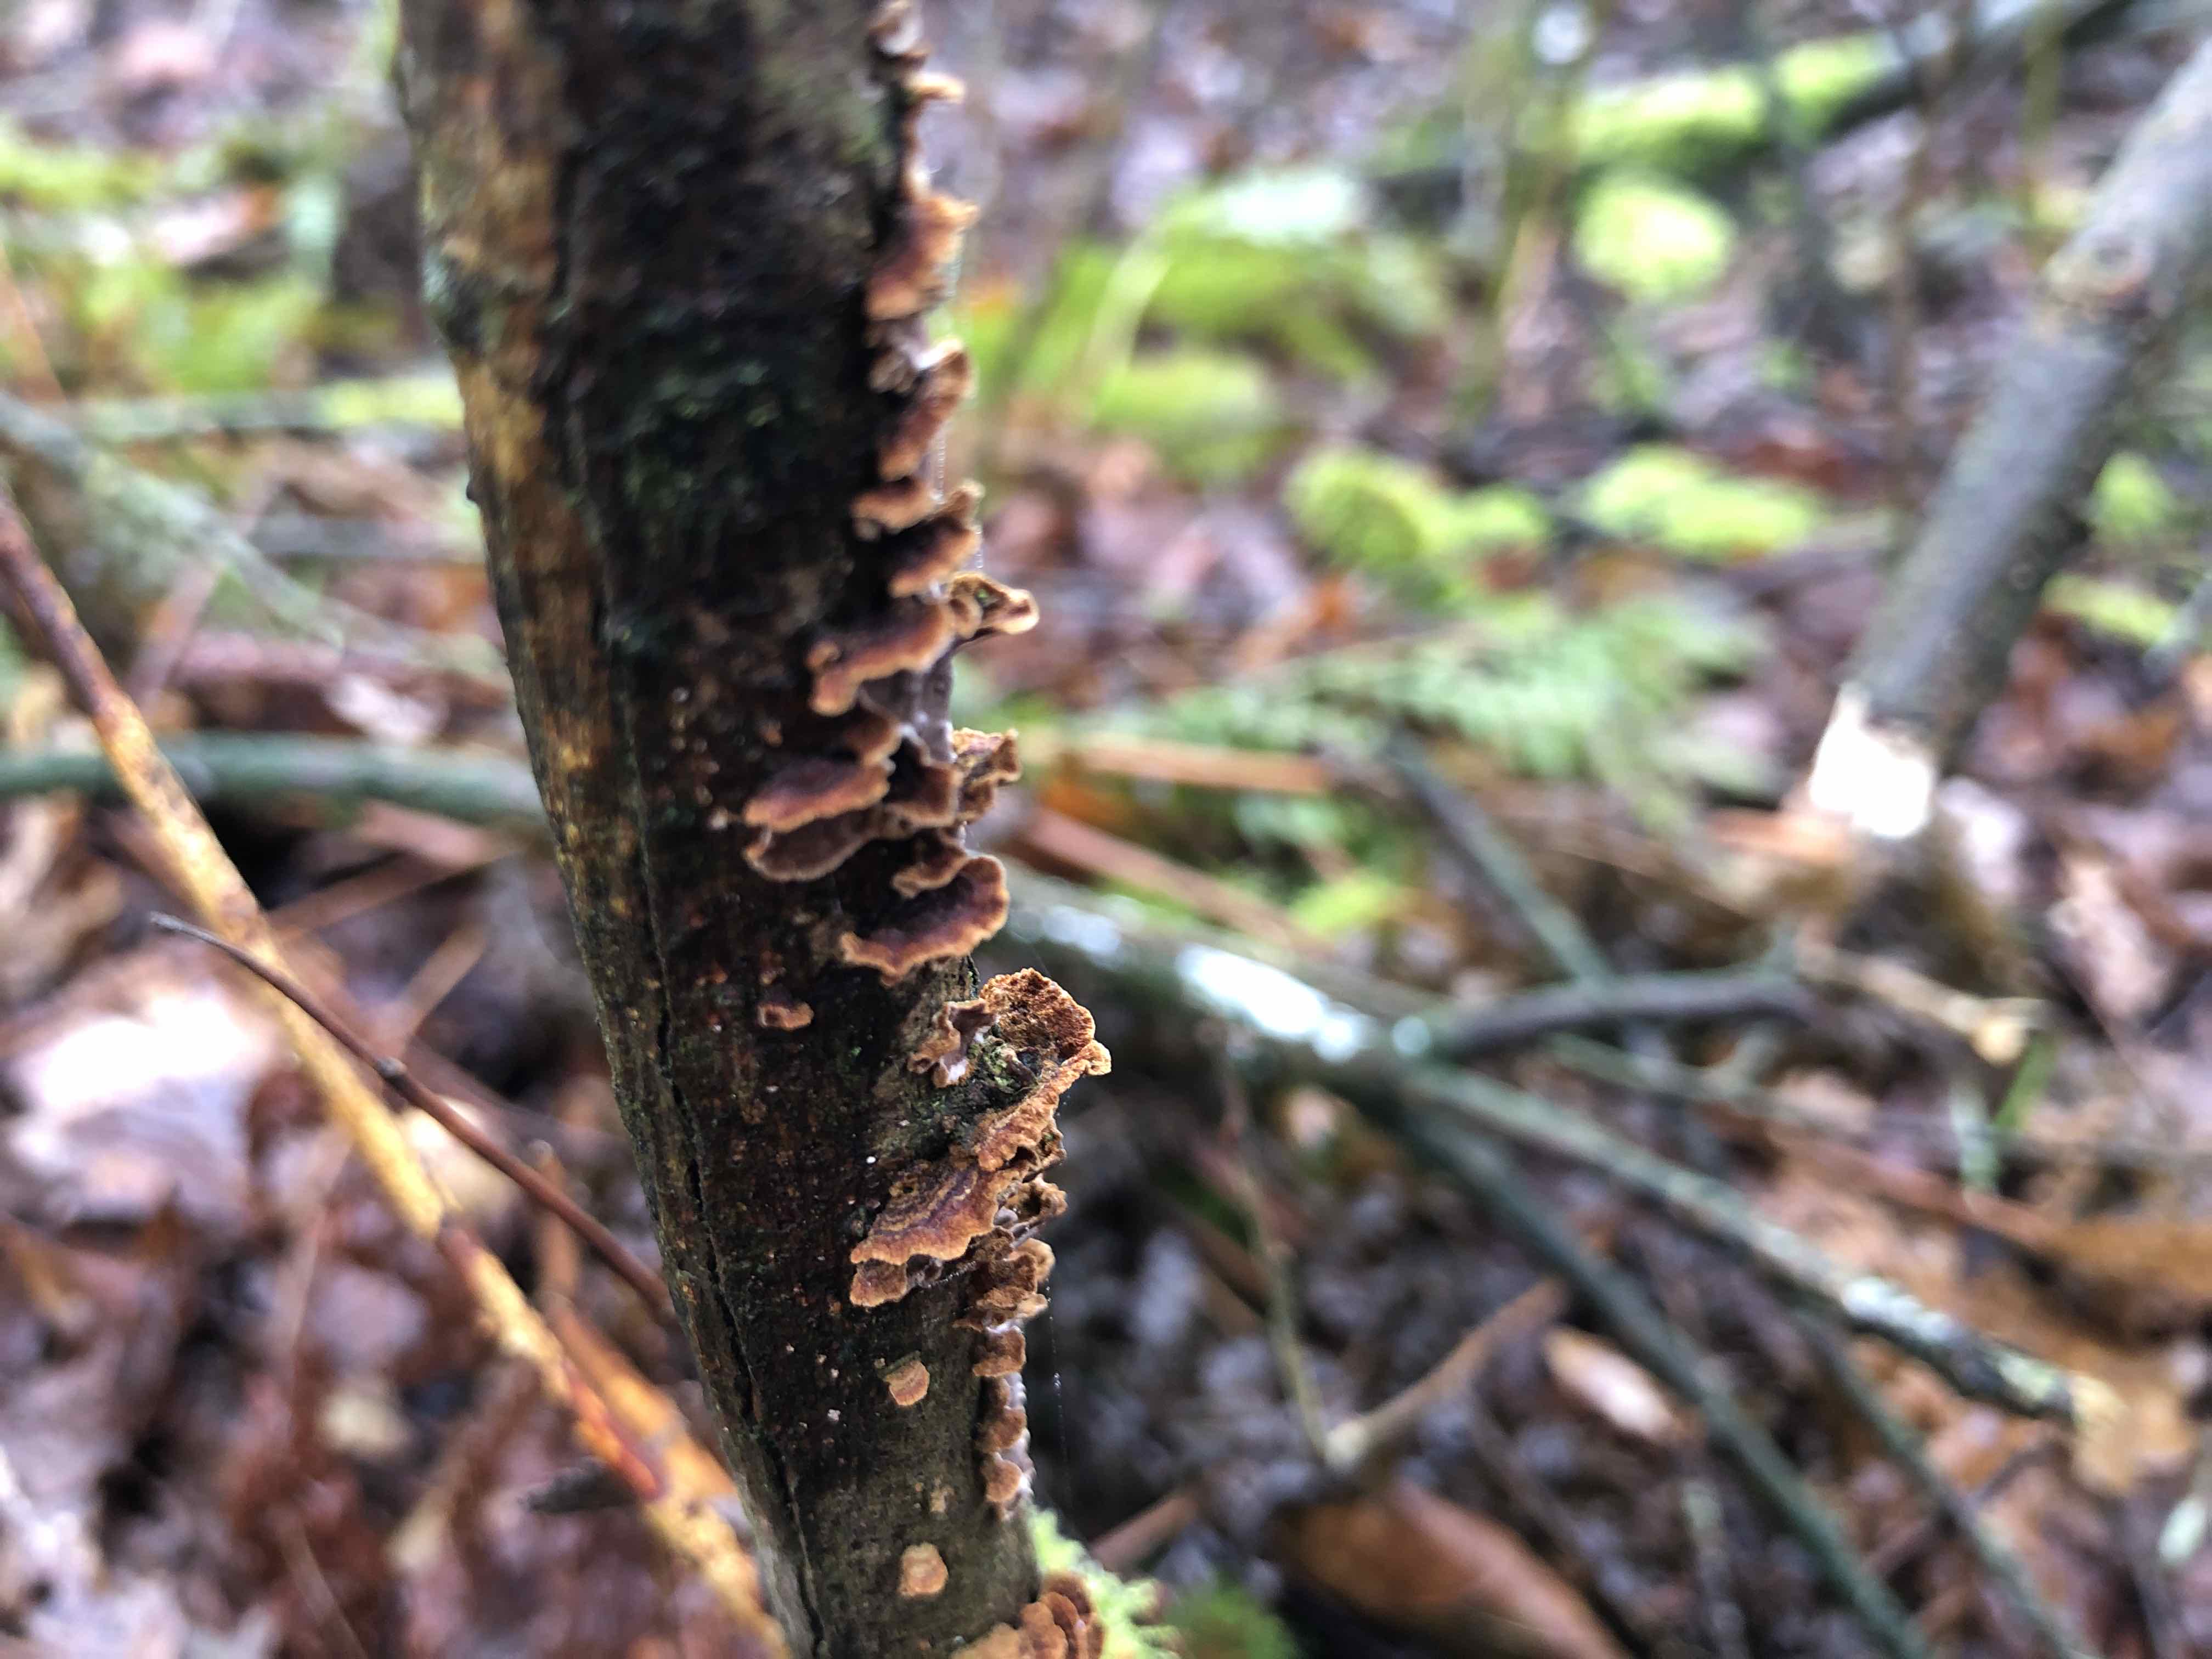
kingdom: Fungi
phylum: Basidiomycota
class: Agaricomycetes
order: Hymenochaetales
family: Hymenochaetaceae
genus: Hydnoporia
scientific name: Hydnoporia tabacina
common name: tobaksbrun ruslædersvamp
